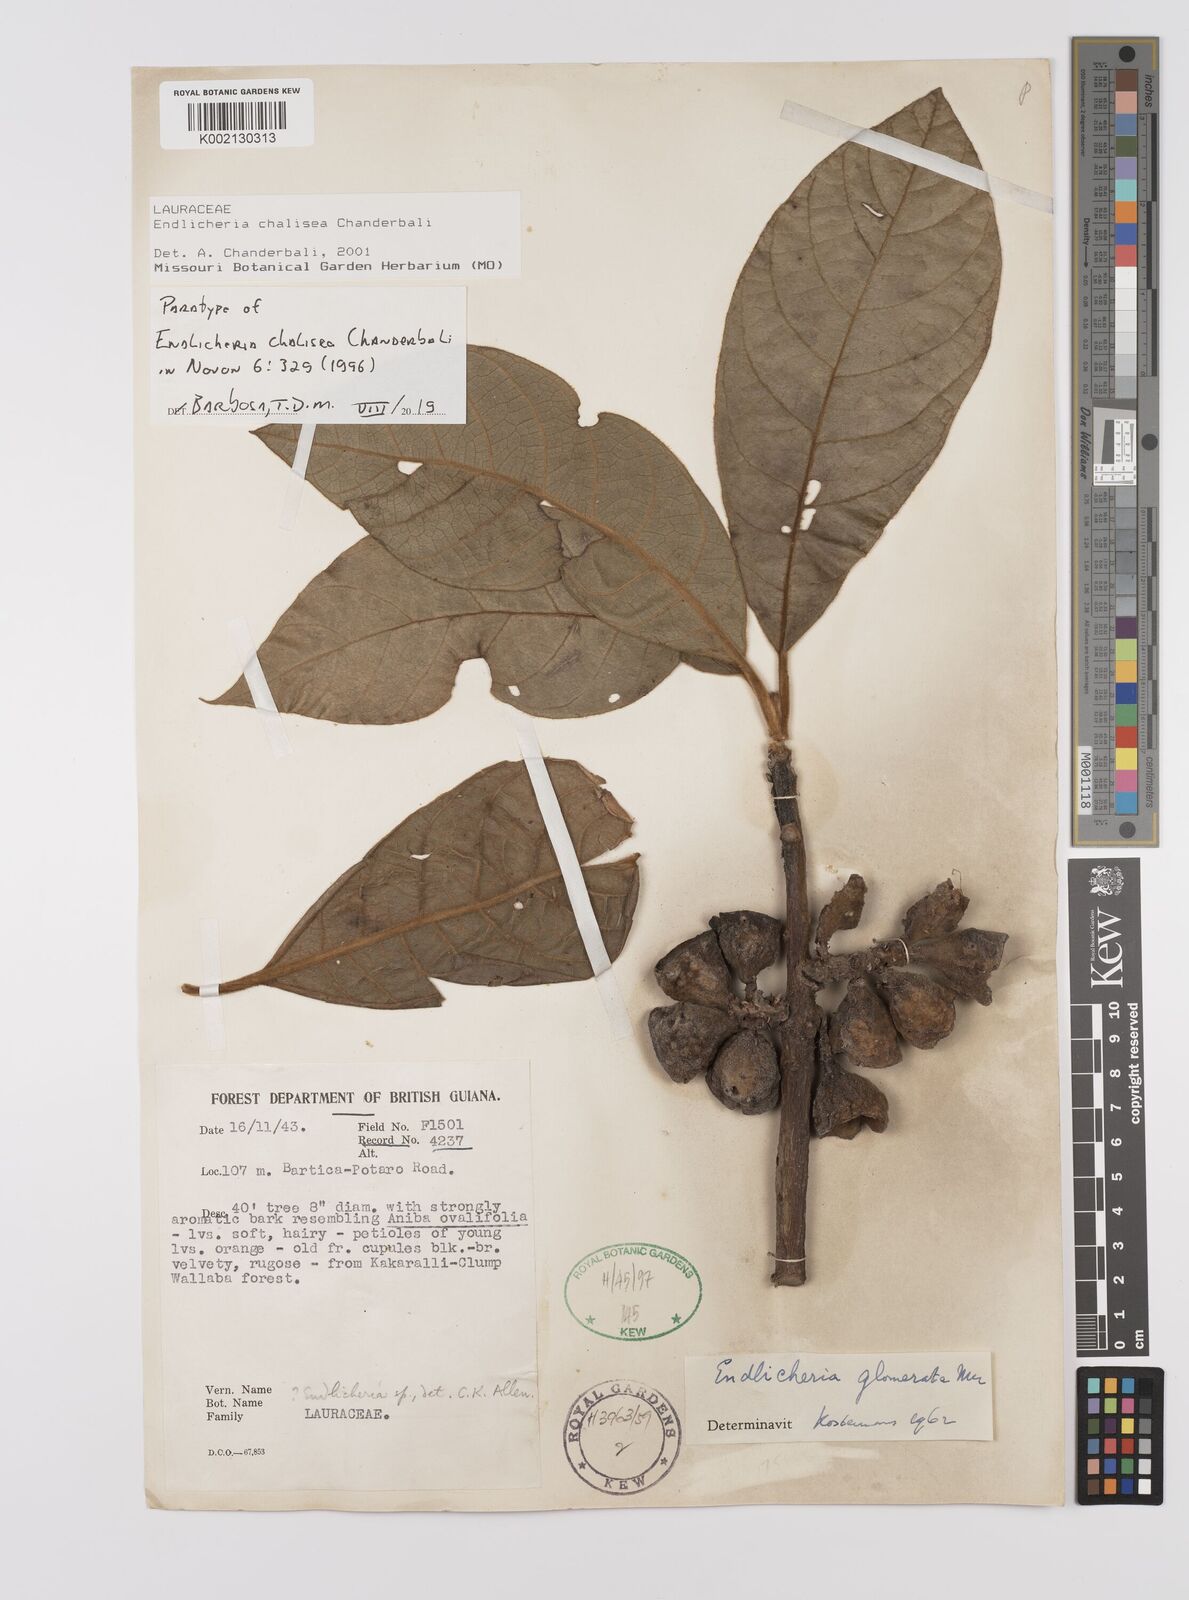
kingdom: Plantae
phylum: Tracheophyta
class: Magnoliopsida
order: Laurales
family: Lauraceae
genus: Endlicheria
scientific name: Endlicheria chalisea
